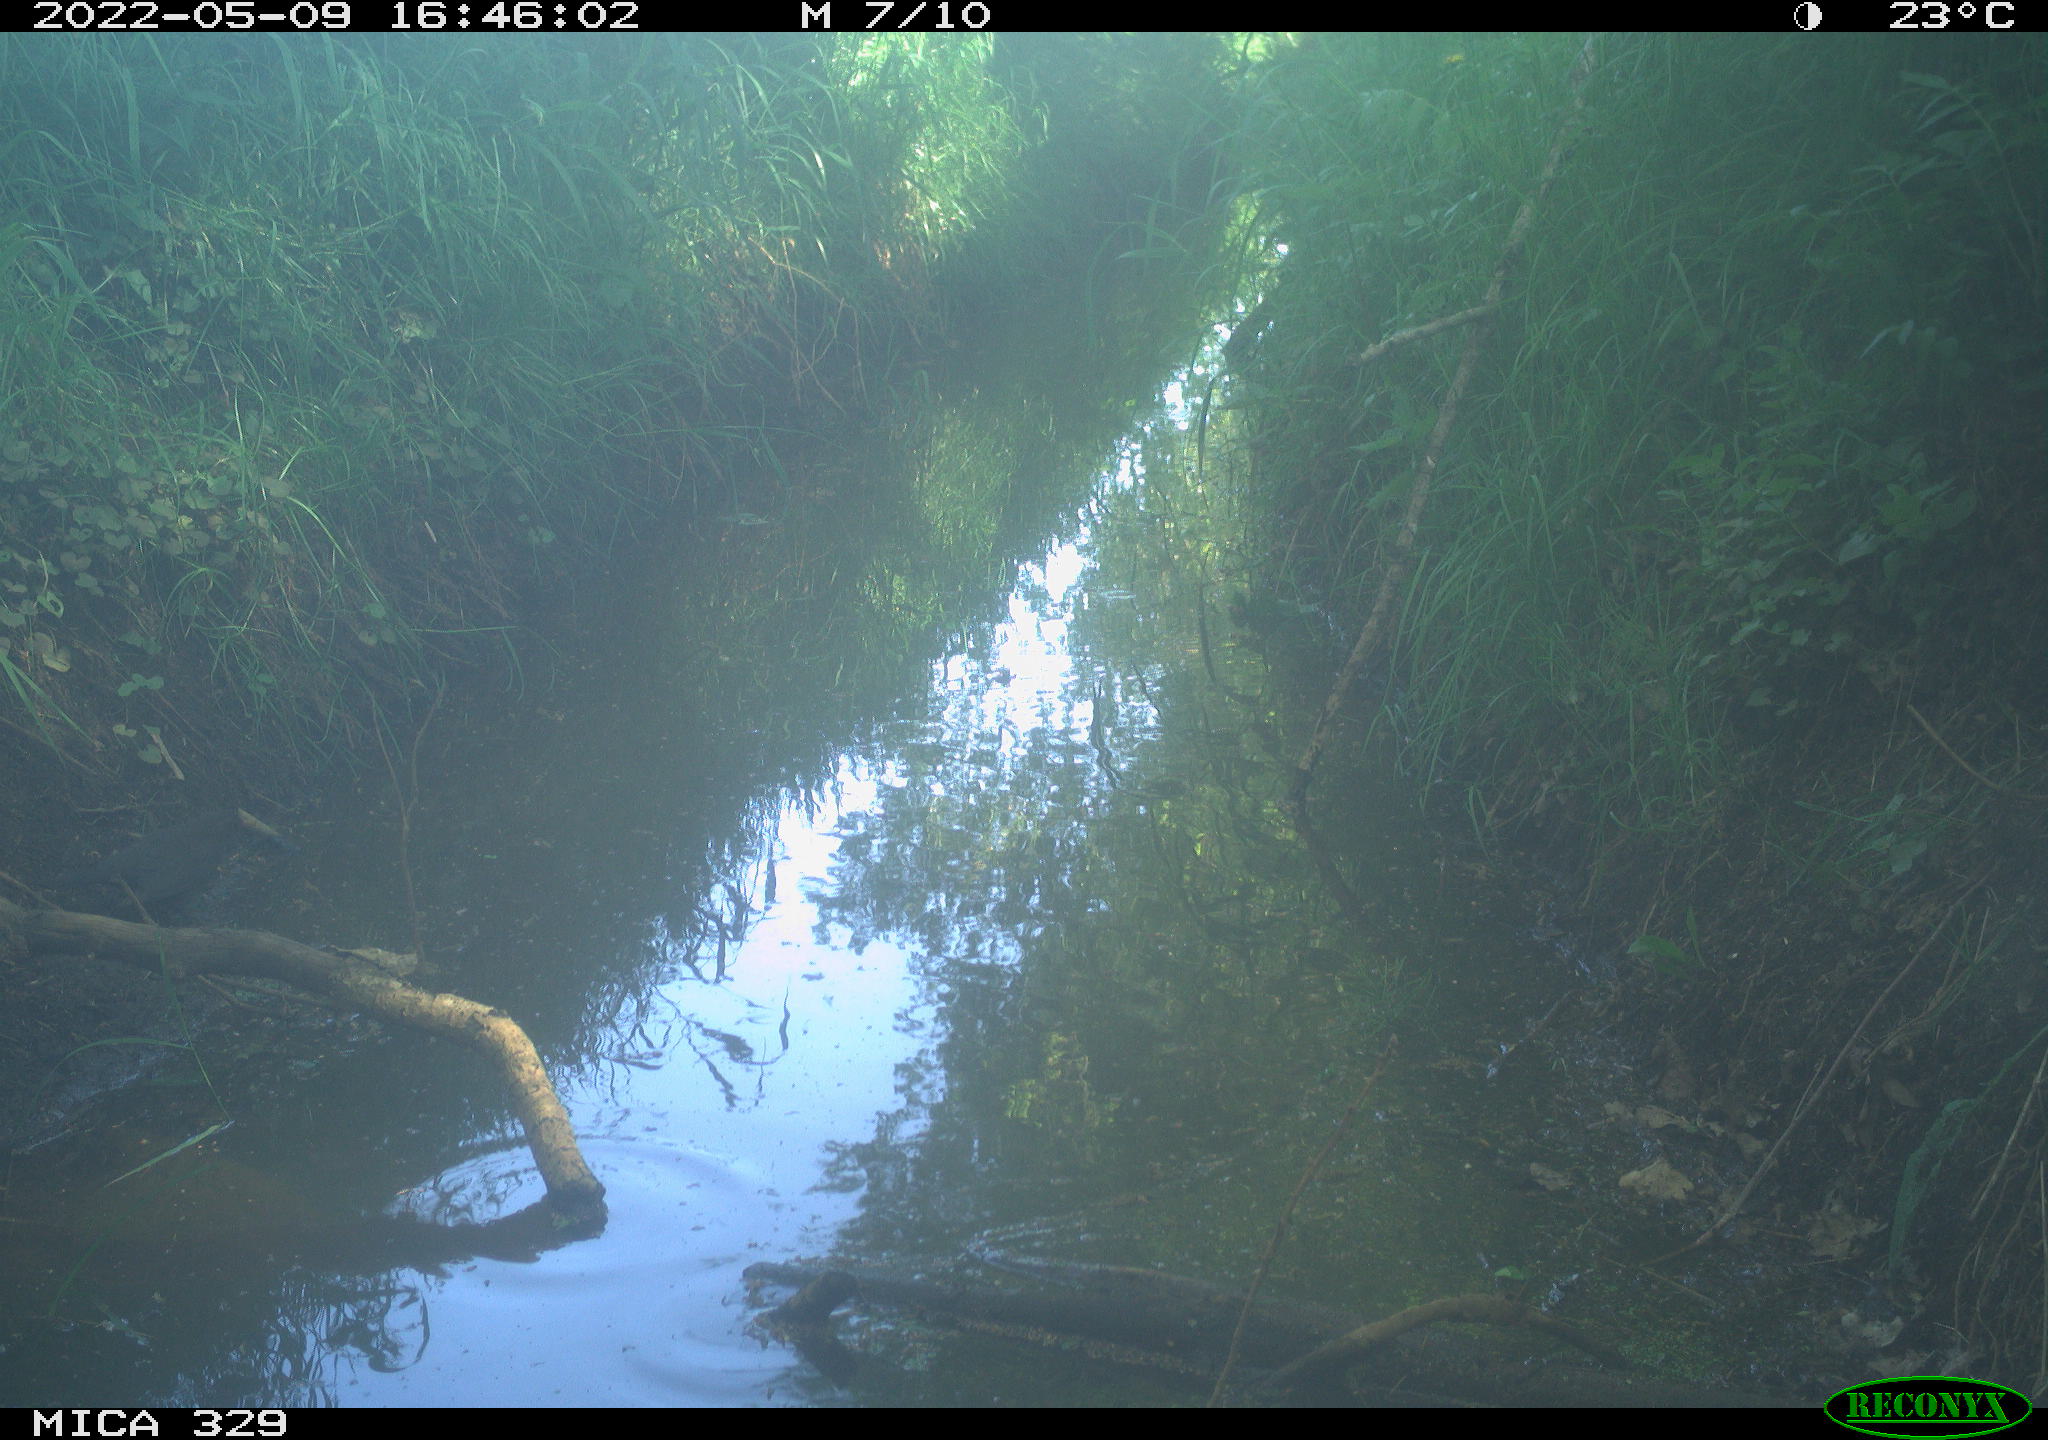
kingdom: Animalia
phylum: Chordata
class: Aves
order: Passeriformes
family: Turdidae
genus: Turdus
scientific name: Turdus merula
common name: Common blackbird
